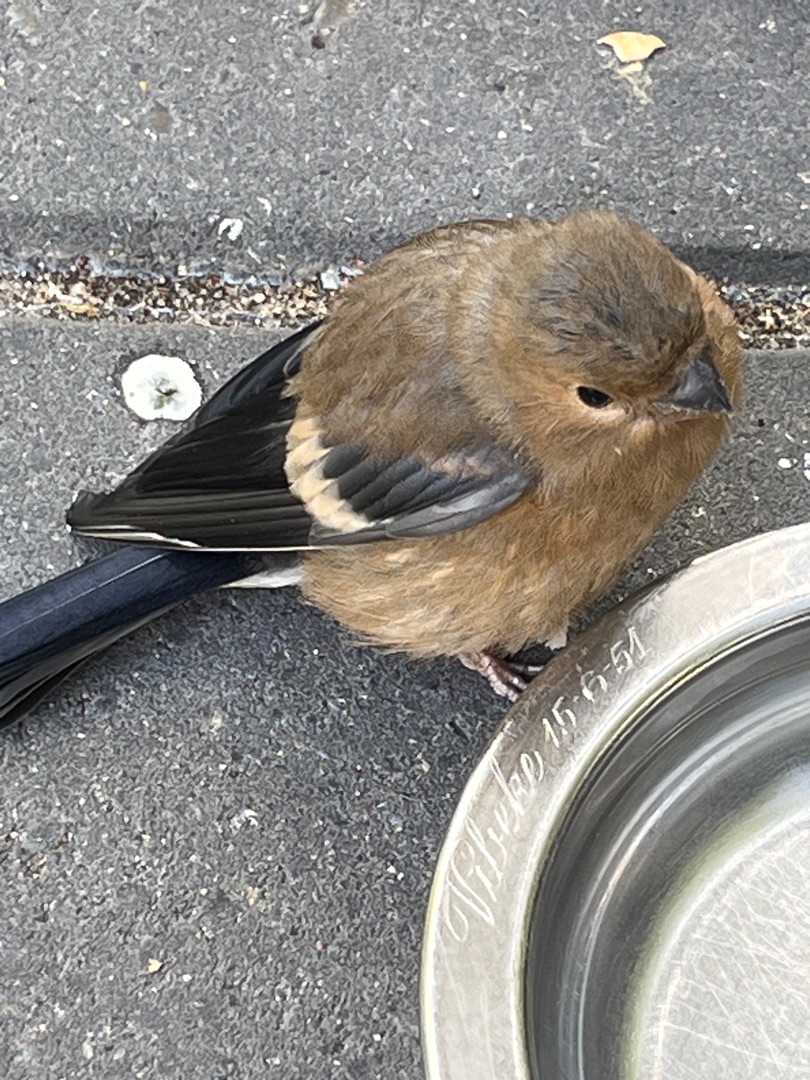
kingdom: Animalia
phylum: Chordata
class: Aves
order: Passeriformes
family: Fringillidae
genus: Pyrrhula
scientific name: Pyrrhula pyrrhula
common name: Dompap
